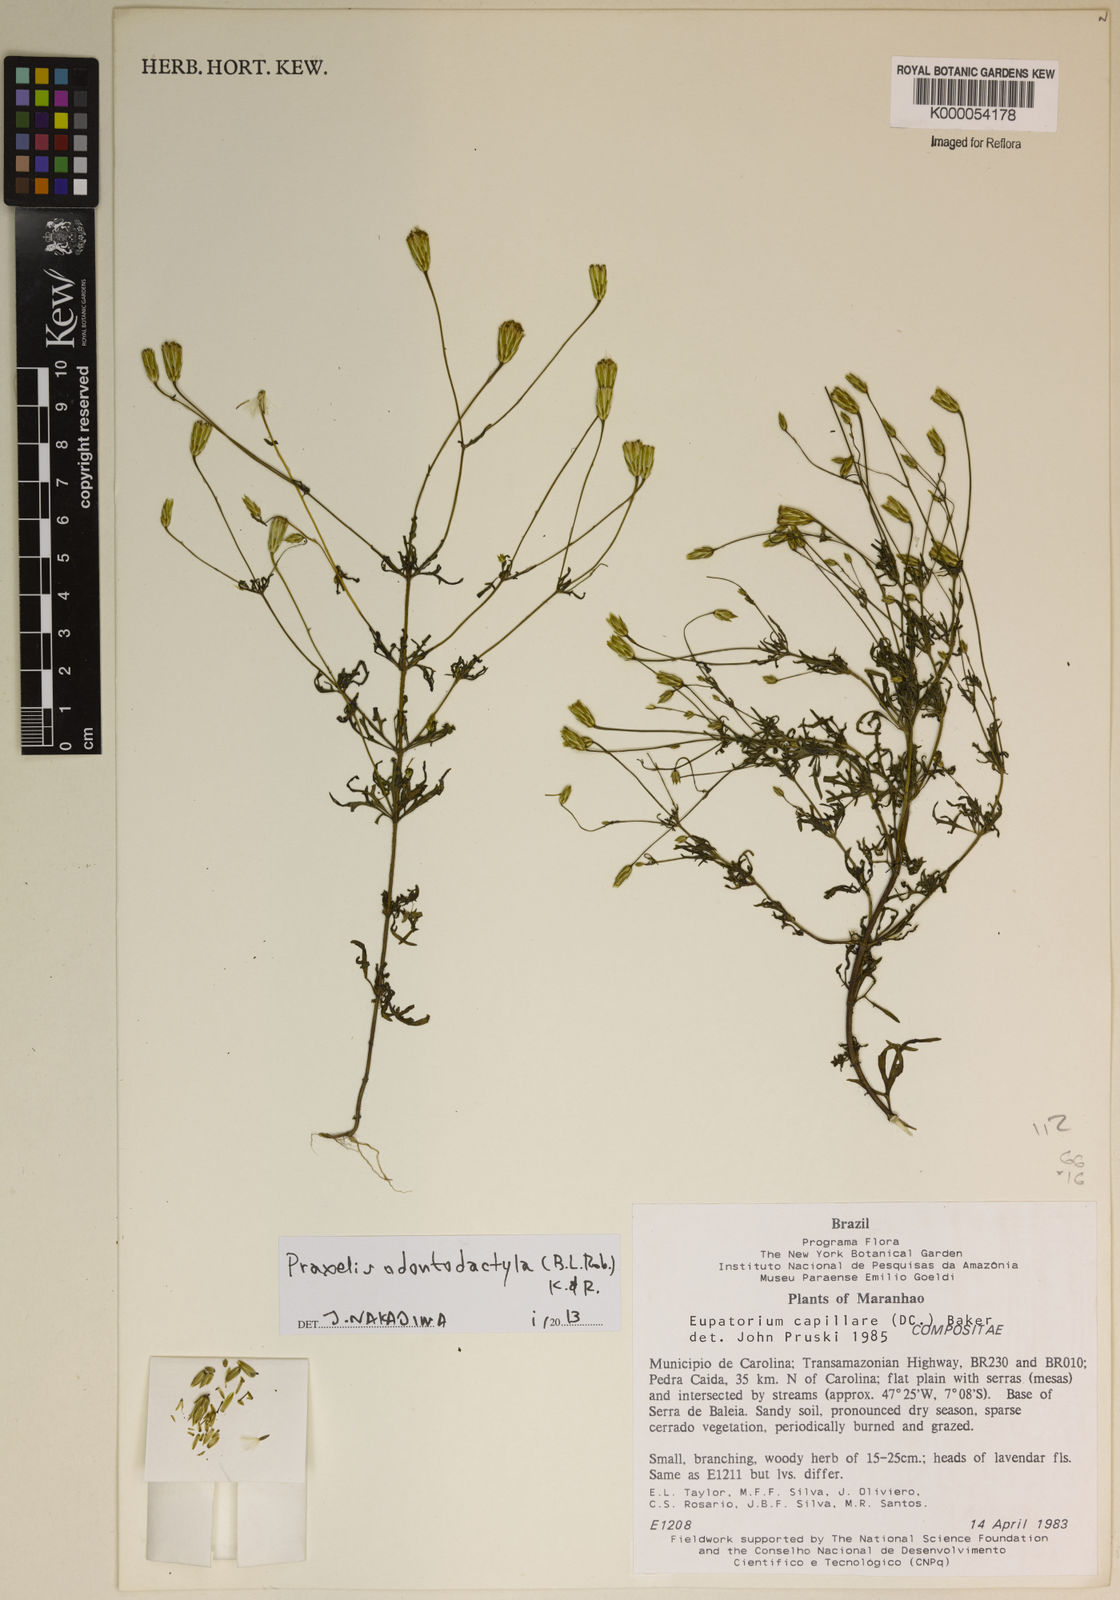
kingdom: Plantae
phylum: Tracheophyta
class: Magnoliopsida
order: Asterales
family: Asteraceae
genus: Brickellia
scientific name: Brickellia diffusa
